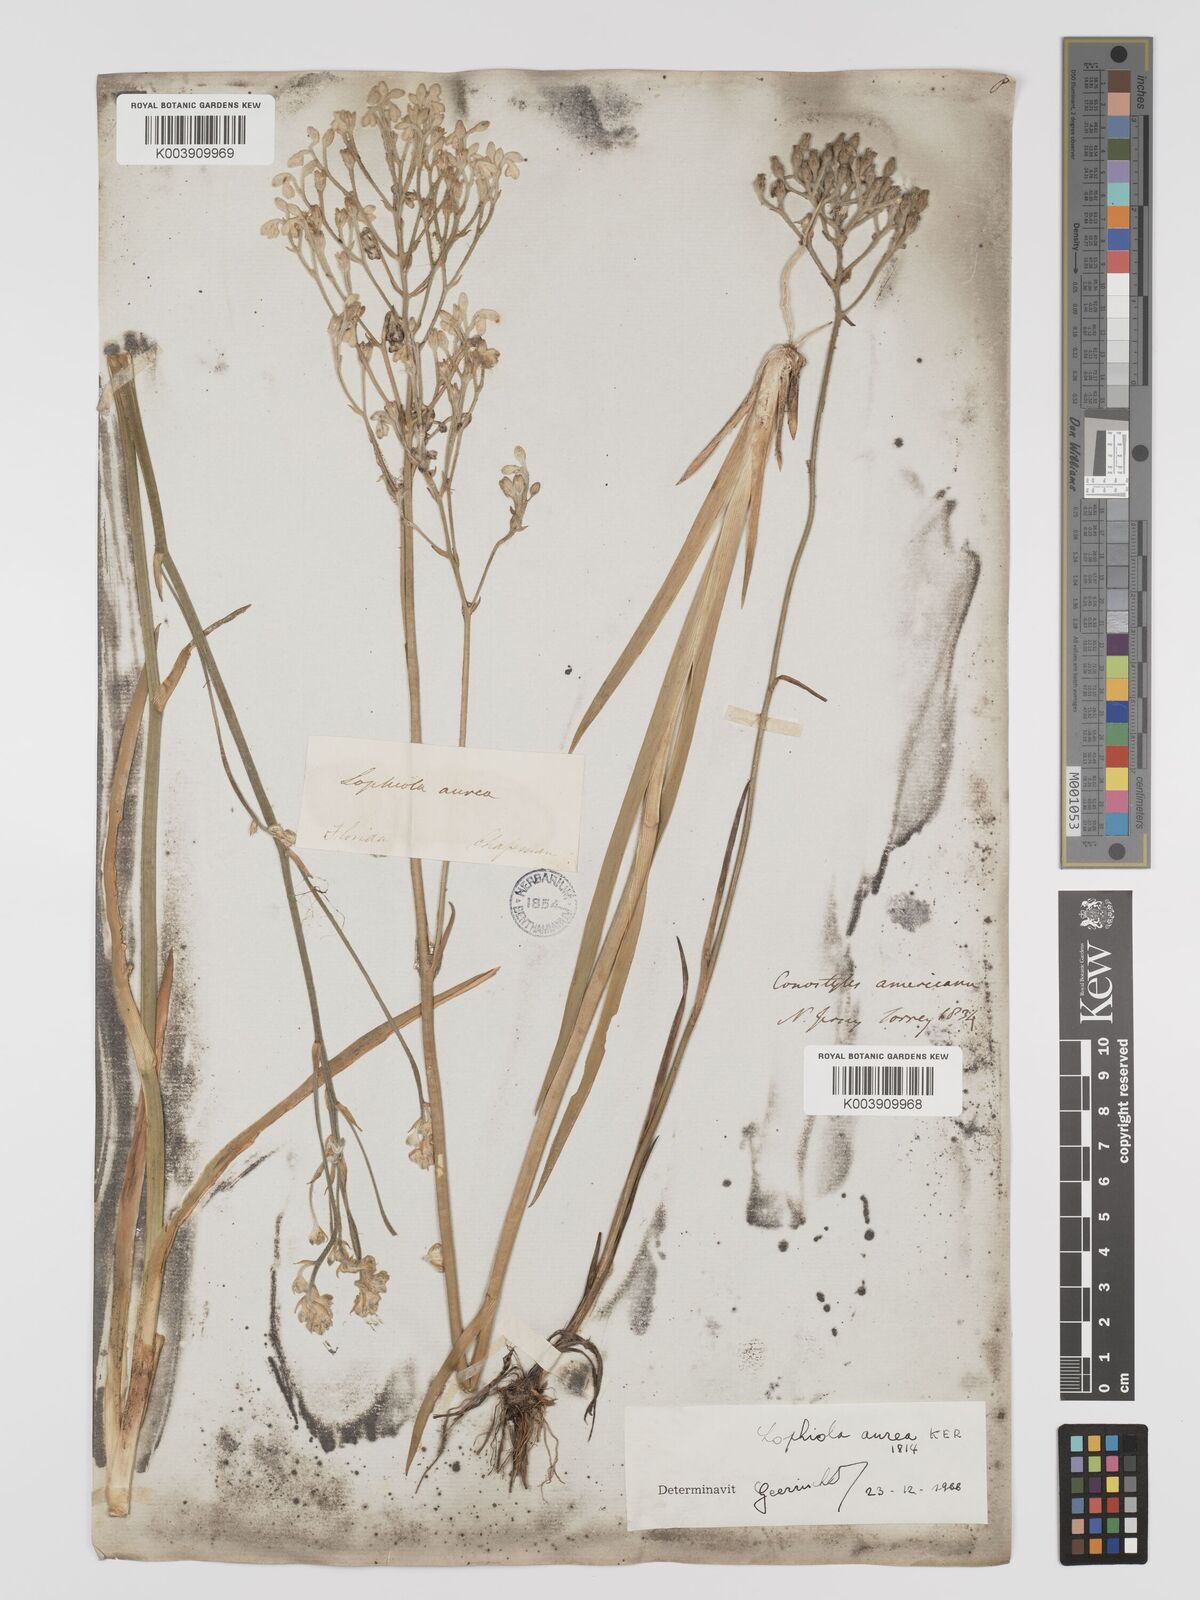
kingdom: Plantae
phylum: Tracheophyta
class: Liliopsida
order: Dioscoreales
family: Nartheciaceae
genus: Lophiola
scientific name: Lophiola aurea
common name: Golden-crest
